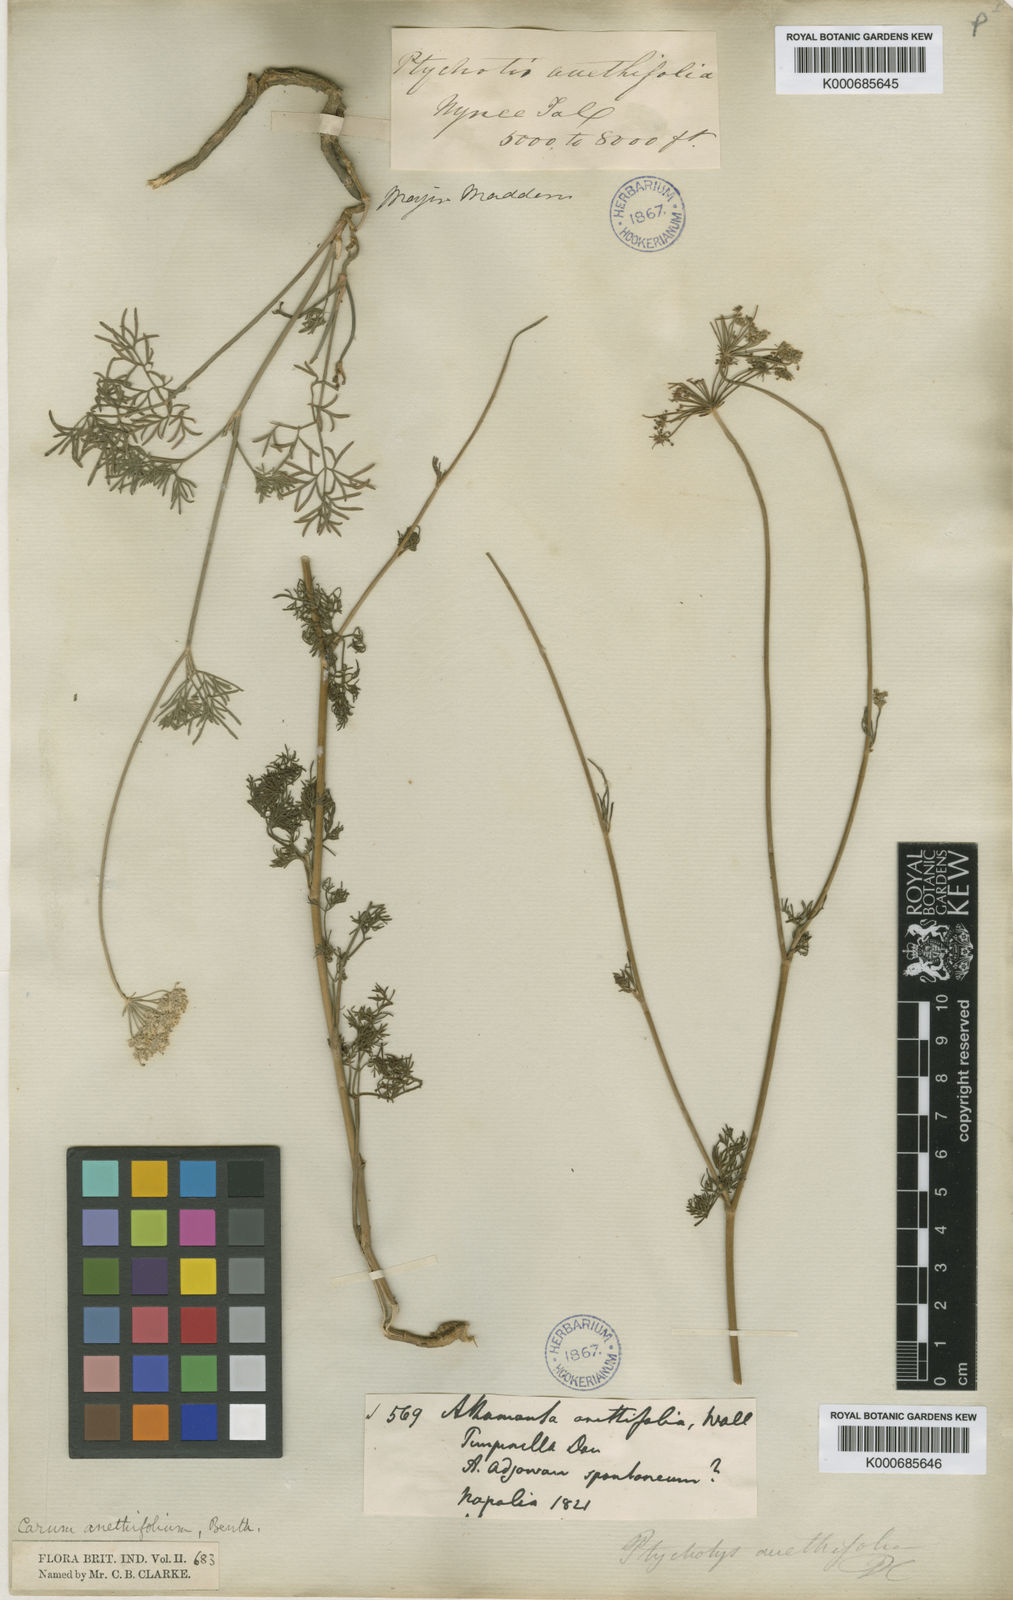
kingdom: Plantae
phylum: Tracheophyta
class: Magnoliopsida
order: Apiales
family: Apiaceae
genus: Psammogeton
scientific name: Psammogeton anethifolium
